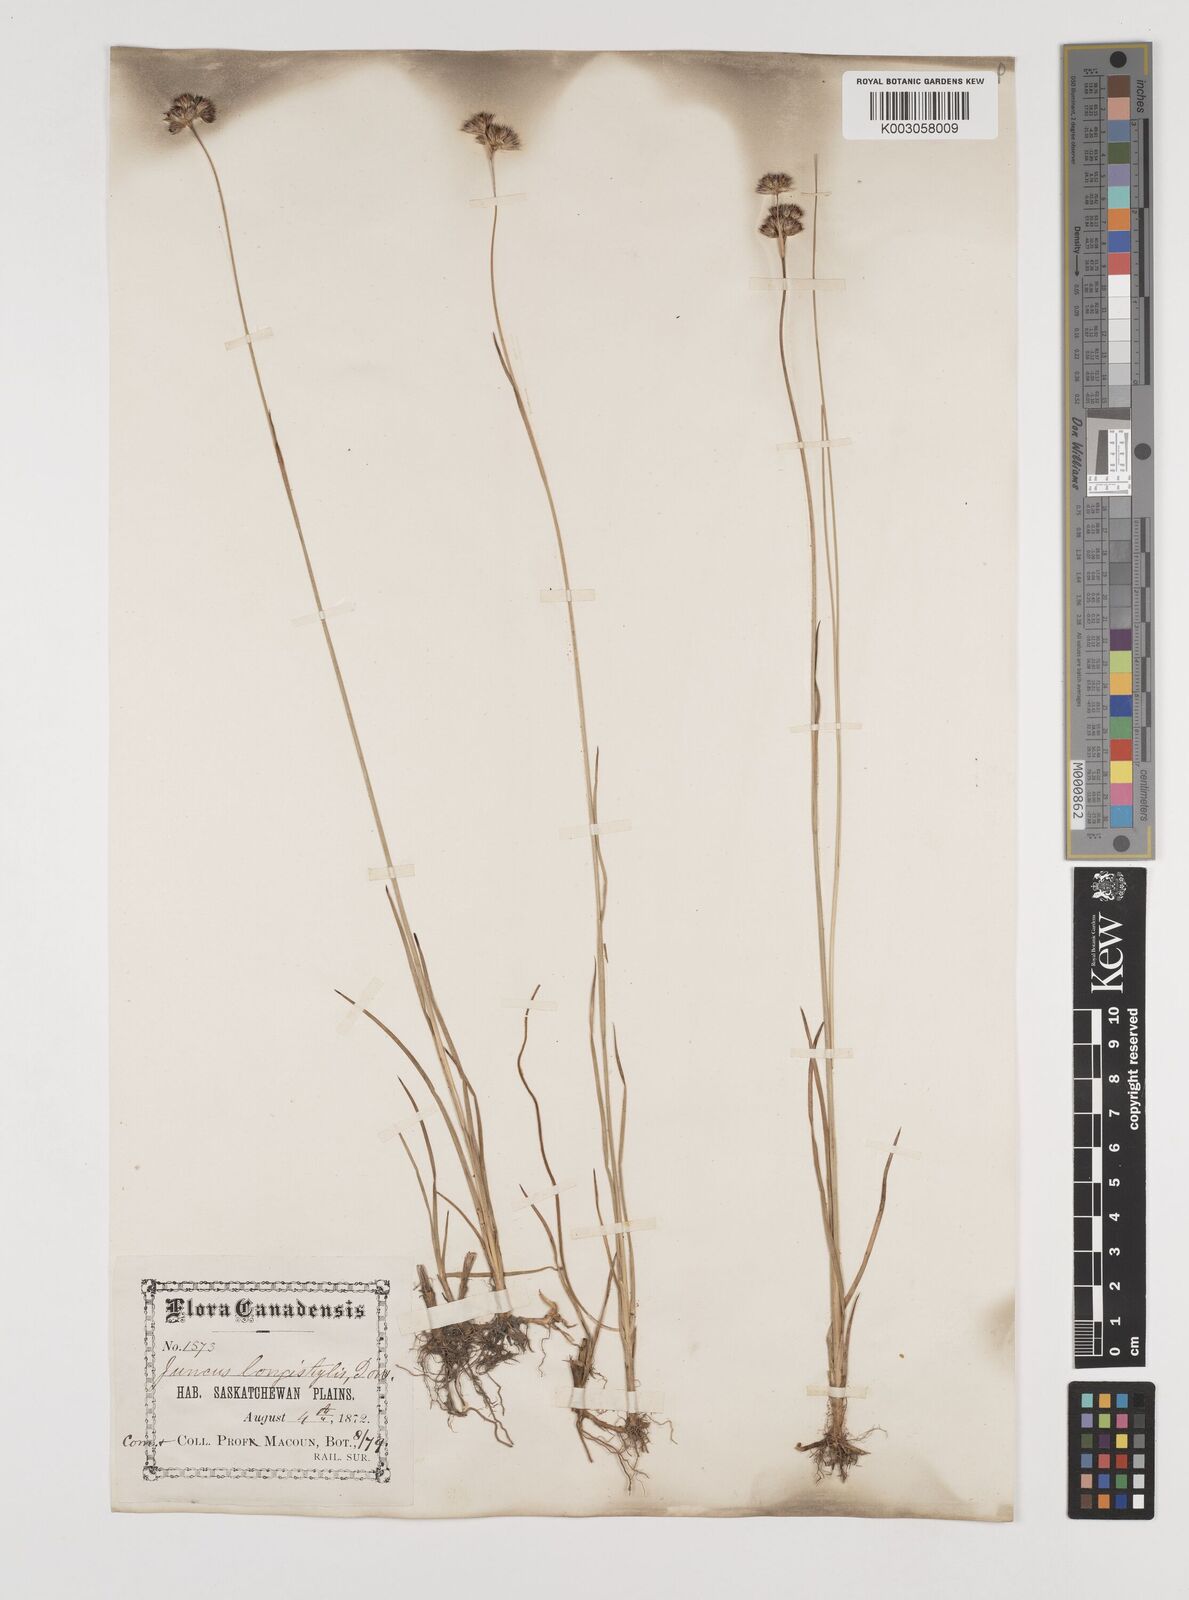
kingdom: Plantae
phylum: Tracheophyta
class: Liliopsida
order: Poales
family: Juncaceae
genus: Juncus
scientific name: Juncus longistylis
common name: Long-style rush
